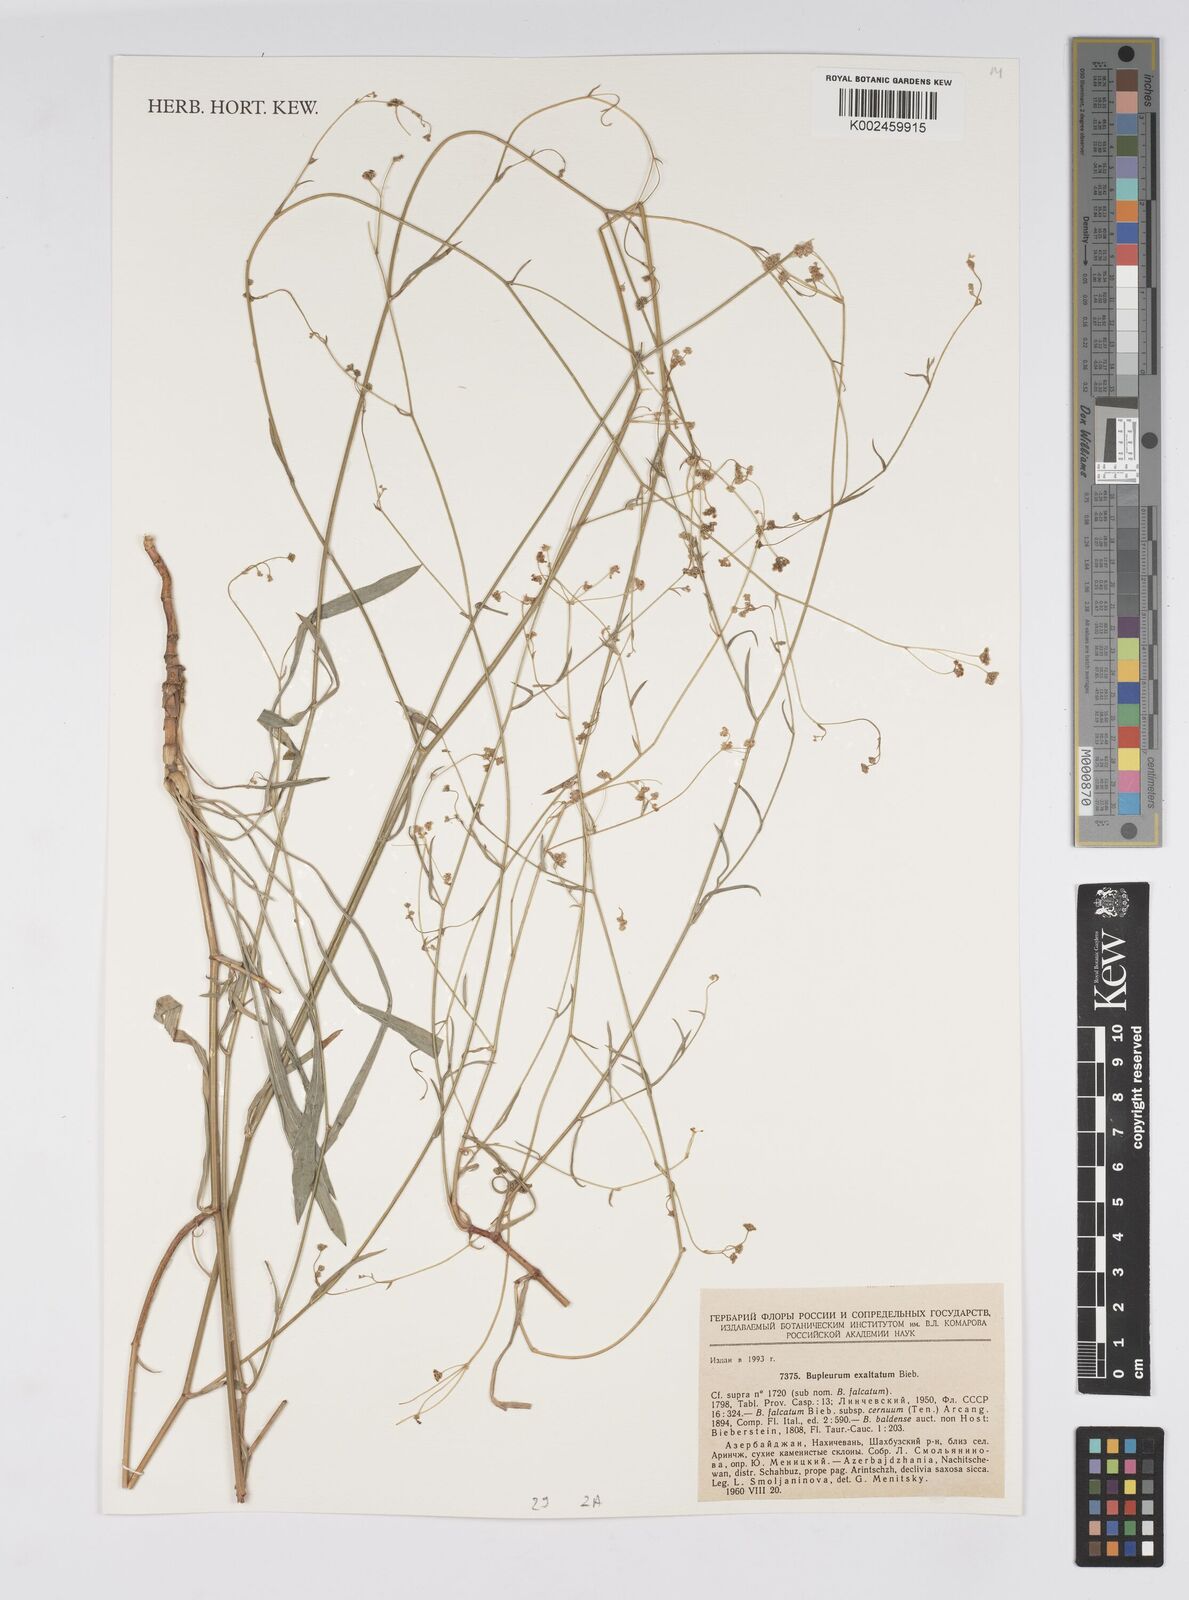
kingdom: Plantae
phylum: Tracheophyta
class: Magnoliopsida
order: Apiales
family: Apiaceae
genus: Bupleurum
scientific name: Bupleurum falcatum
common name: Sickle-leaved hare's-ear
